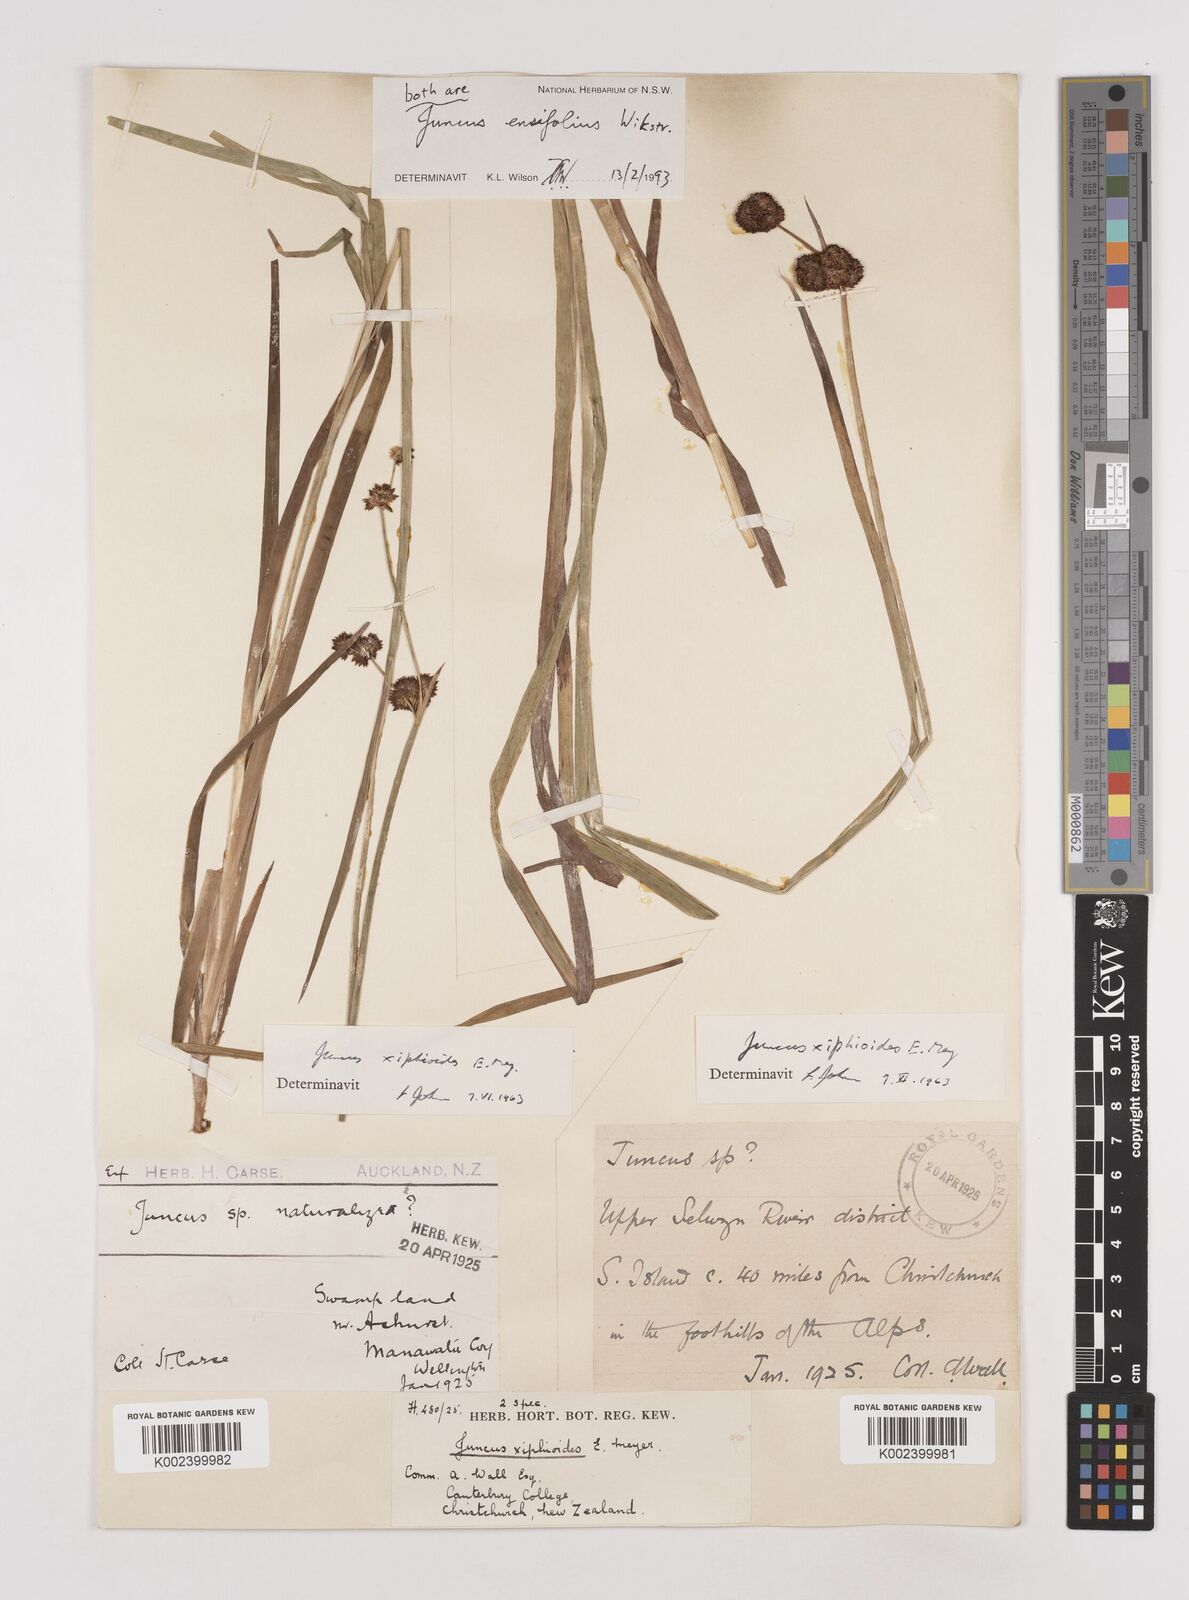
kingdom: Plantae
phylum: Tracheophyta
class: Liliopsida
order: Poales
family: Juncaceae
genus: Juncus
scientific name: Juncus ensifolius
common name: Sword-leaved rush
